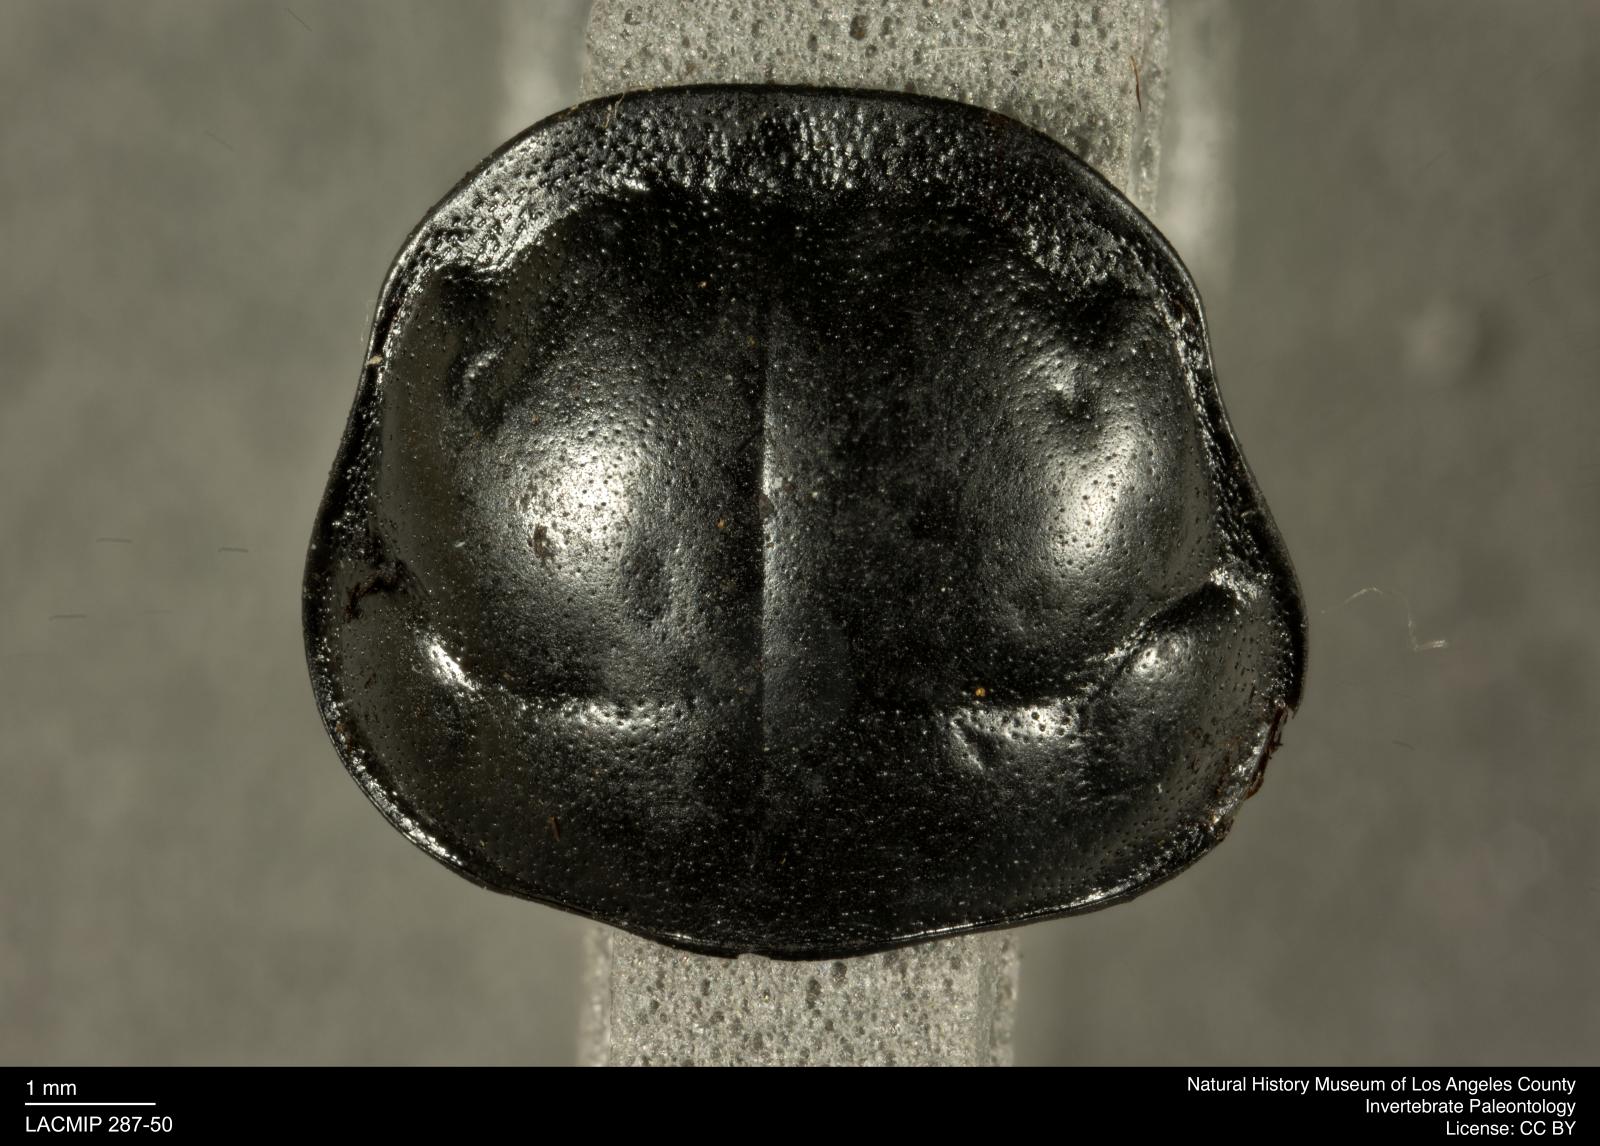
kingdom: Animalia
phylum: Arthropoda
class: Insecta
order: Coleoptera
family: Staphylinidae
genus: Nicrophorus
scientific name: Nicrophorus marginatus
